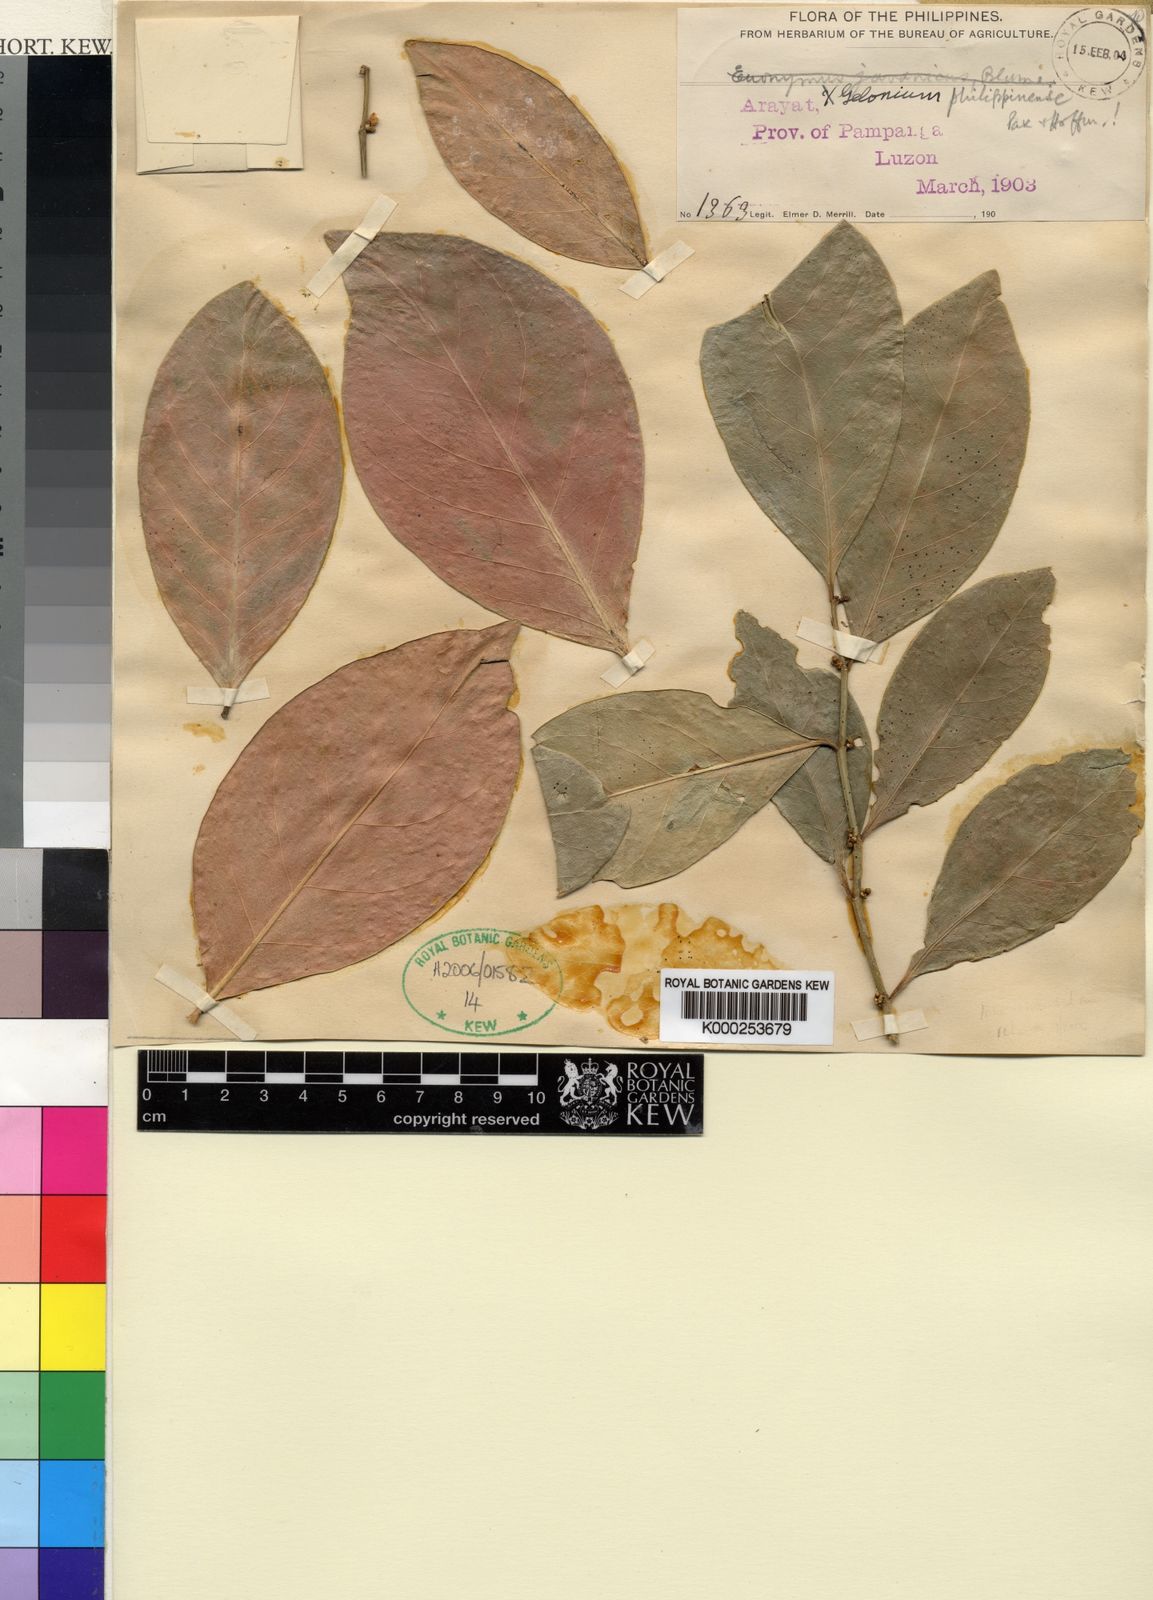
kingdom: Plantae
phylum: Tracheophyta
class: Magnoliopsida
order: Malpighiales
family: Euphorbiaceae
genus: Suregada
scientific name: Suregada glomerulata
